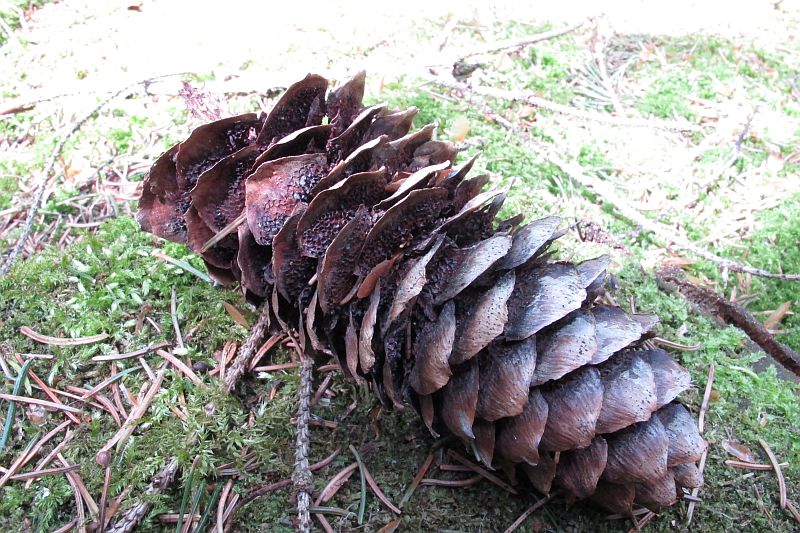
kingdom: Fungi
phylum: Basidiomycota
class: Pucciniomycetes
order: Pucciniales
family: Pucciniastraceae
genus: Thekopsora
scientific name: Thekopsora areolata
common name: grankogle-nålerust
